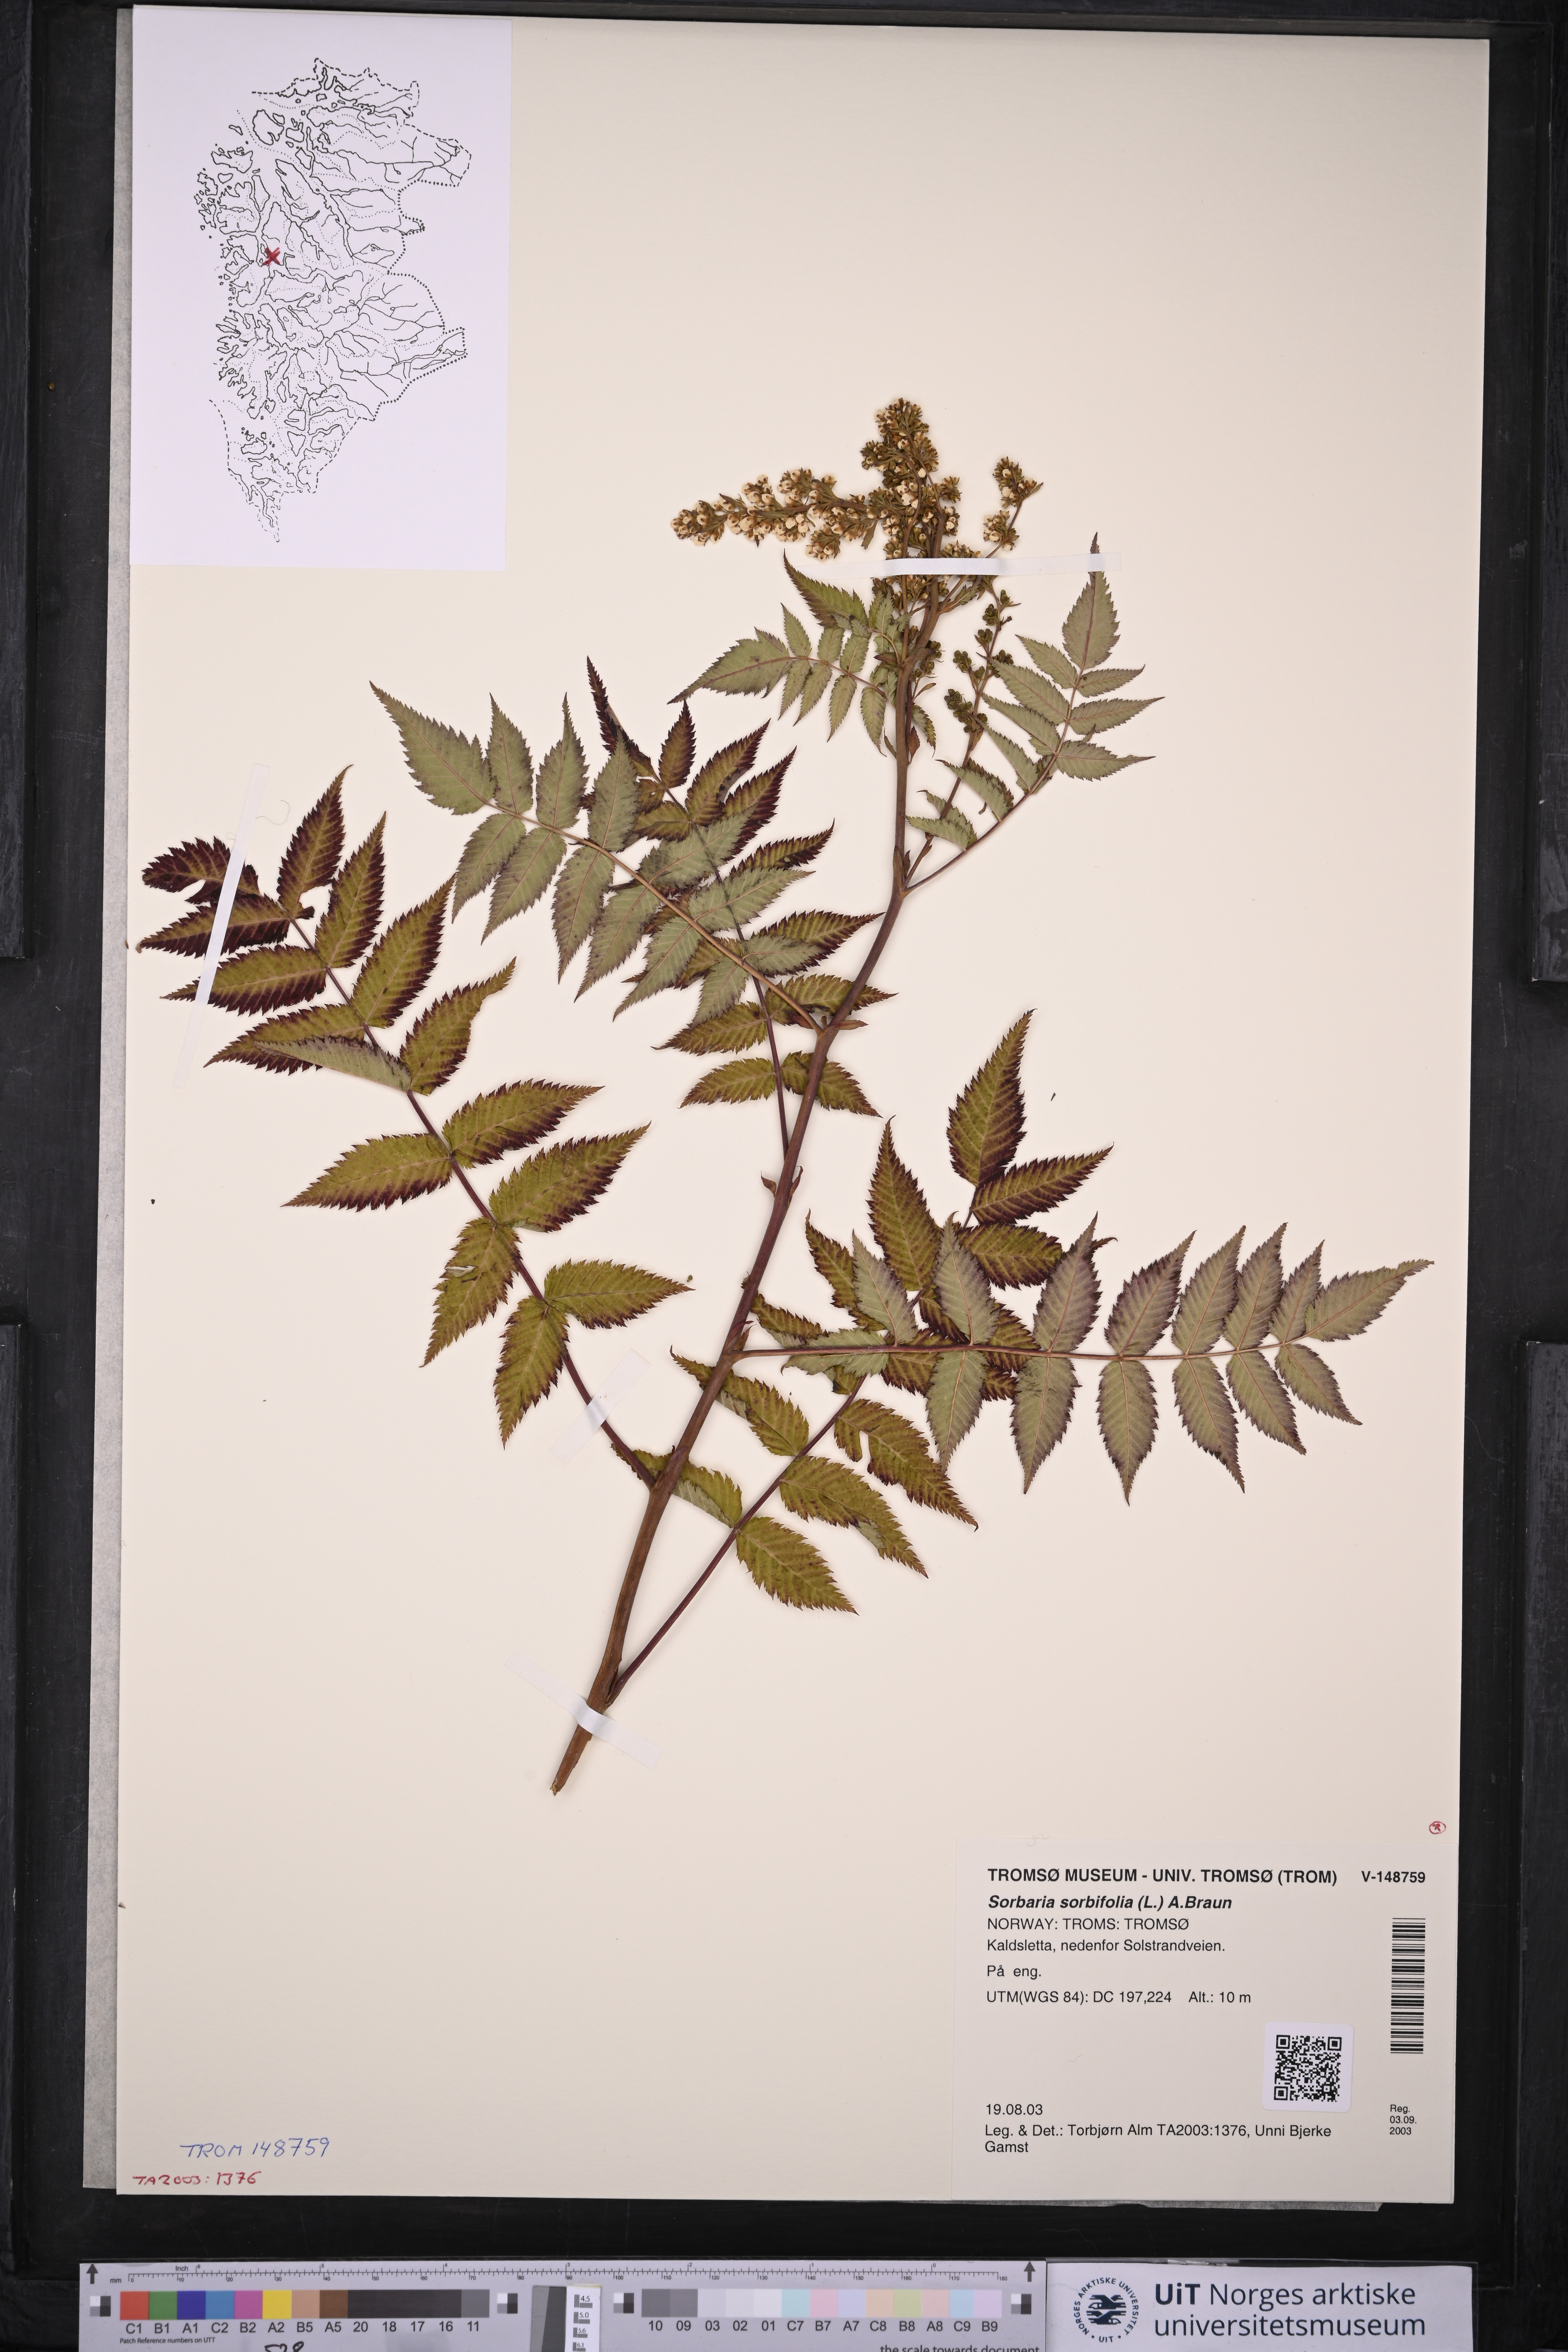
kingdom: Plantae
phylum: Tracheophyta
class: Magnoliopsida
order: Rosales
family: Rosaceae
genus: Sorbaria
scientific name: Sorbaria sorbifolia
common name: False spiraea
